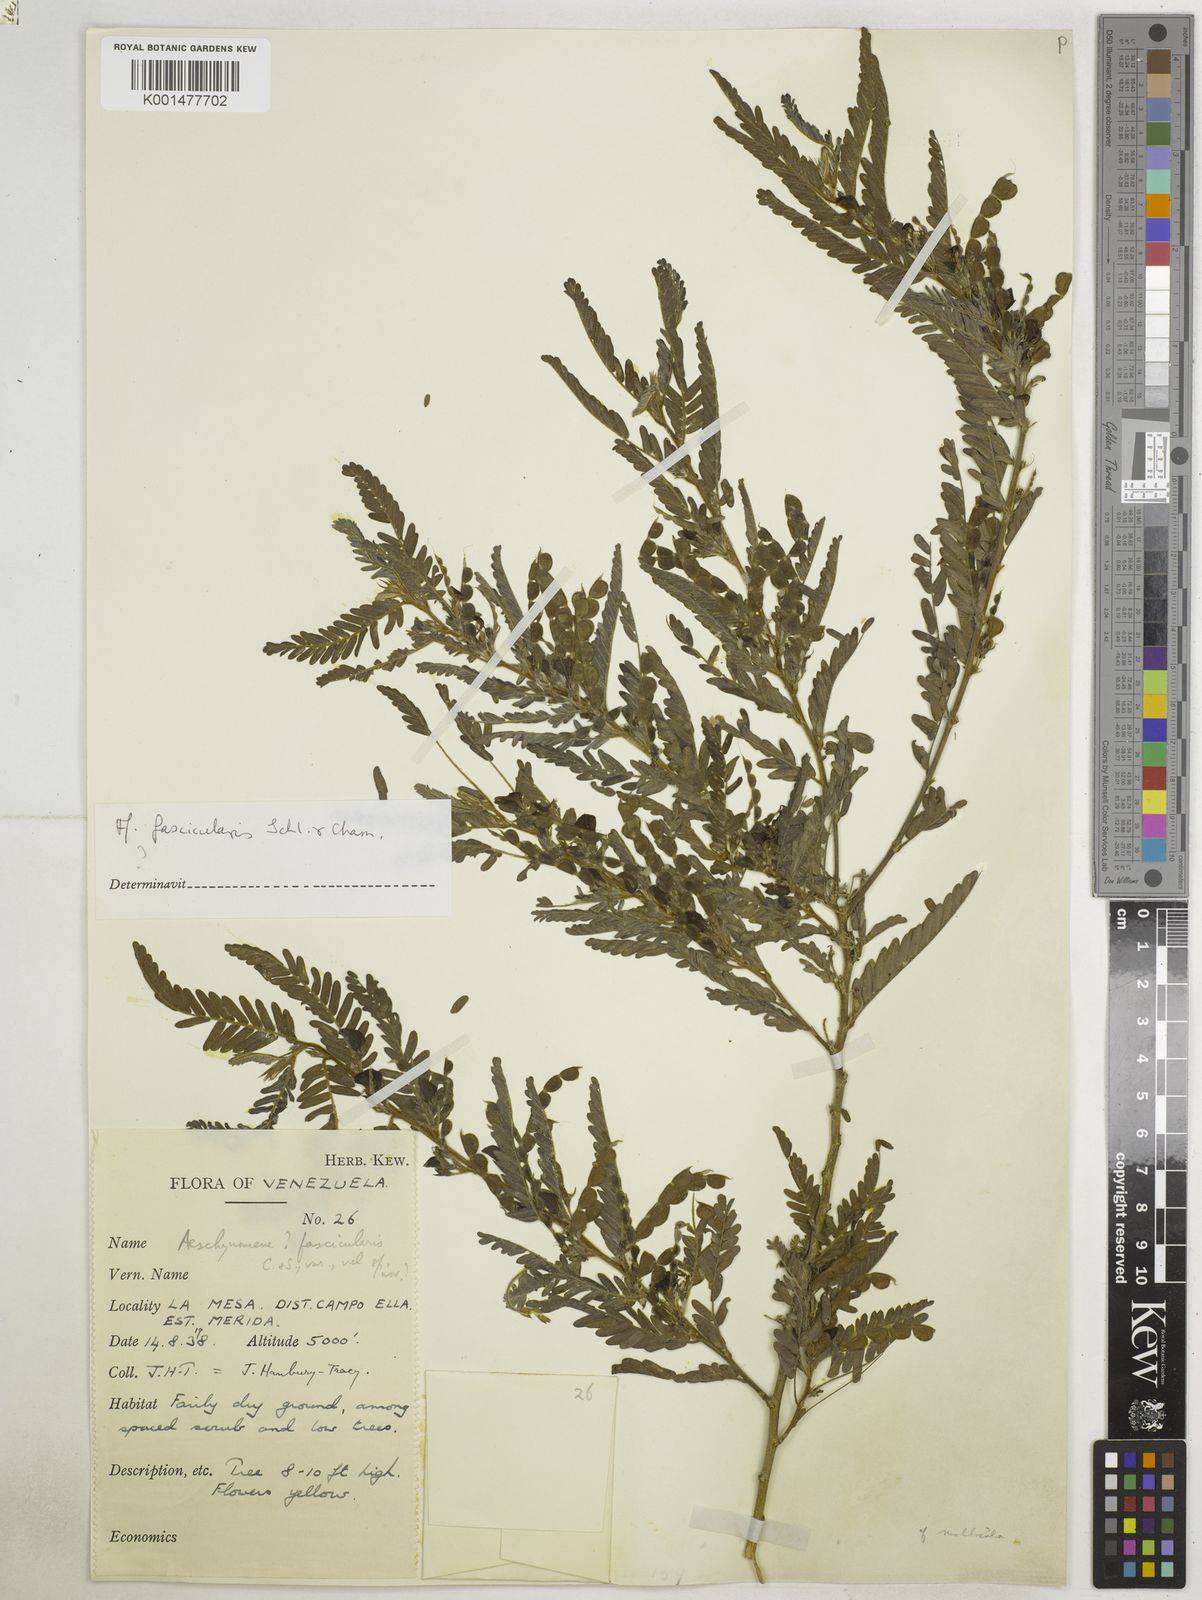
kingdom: Plantae
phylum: Tracheophyta
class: Magnoliopsida
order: Fabales
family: Fabaceae
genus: Ctenodon
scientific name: Ctenodon fascicularis
